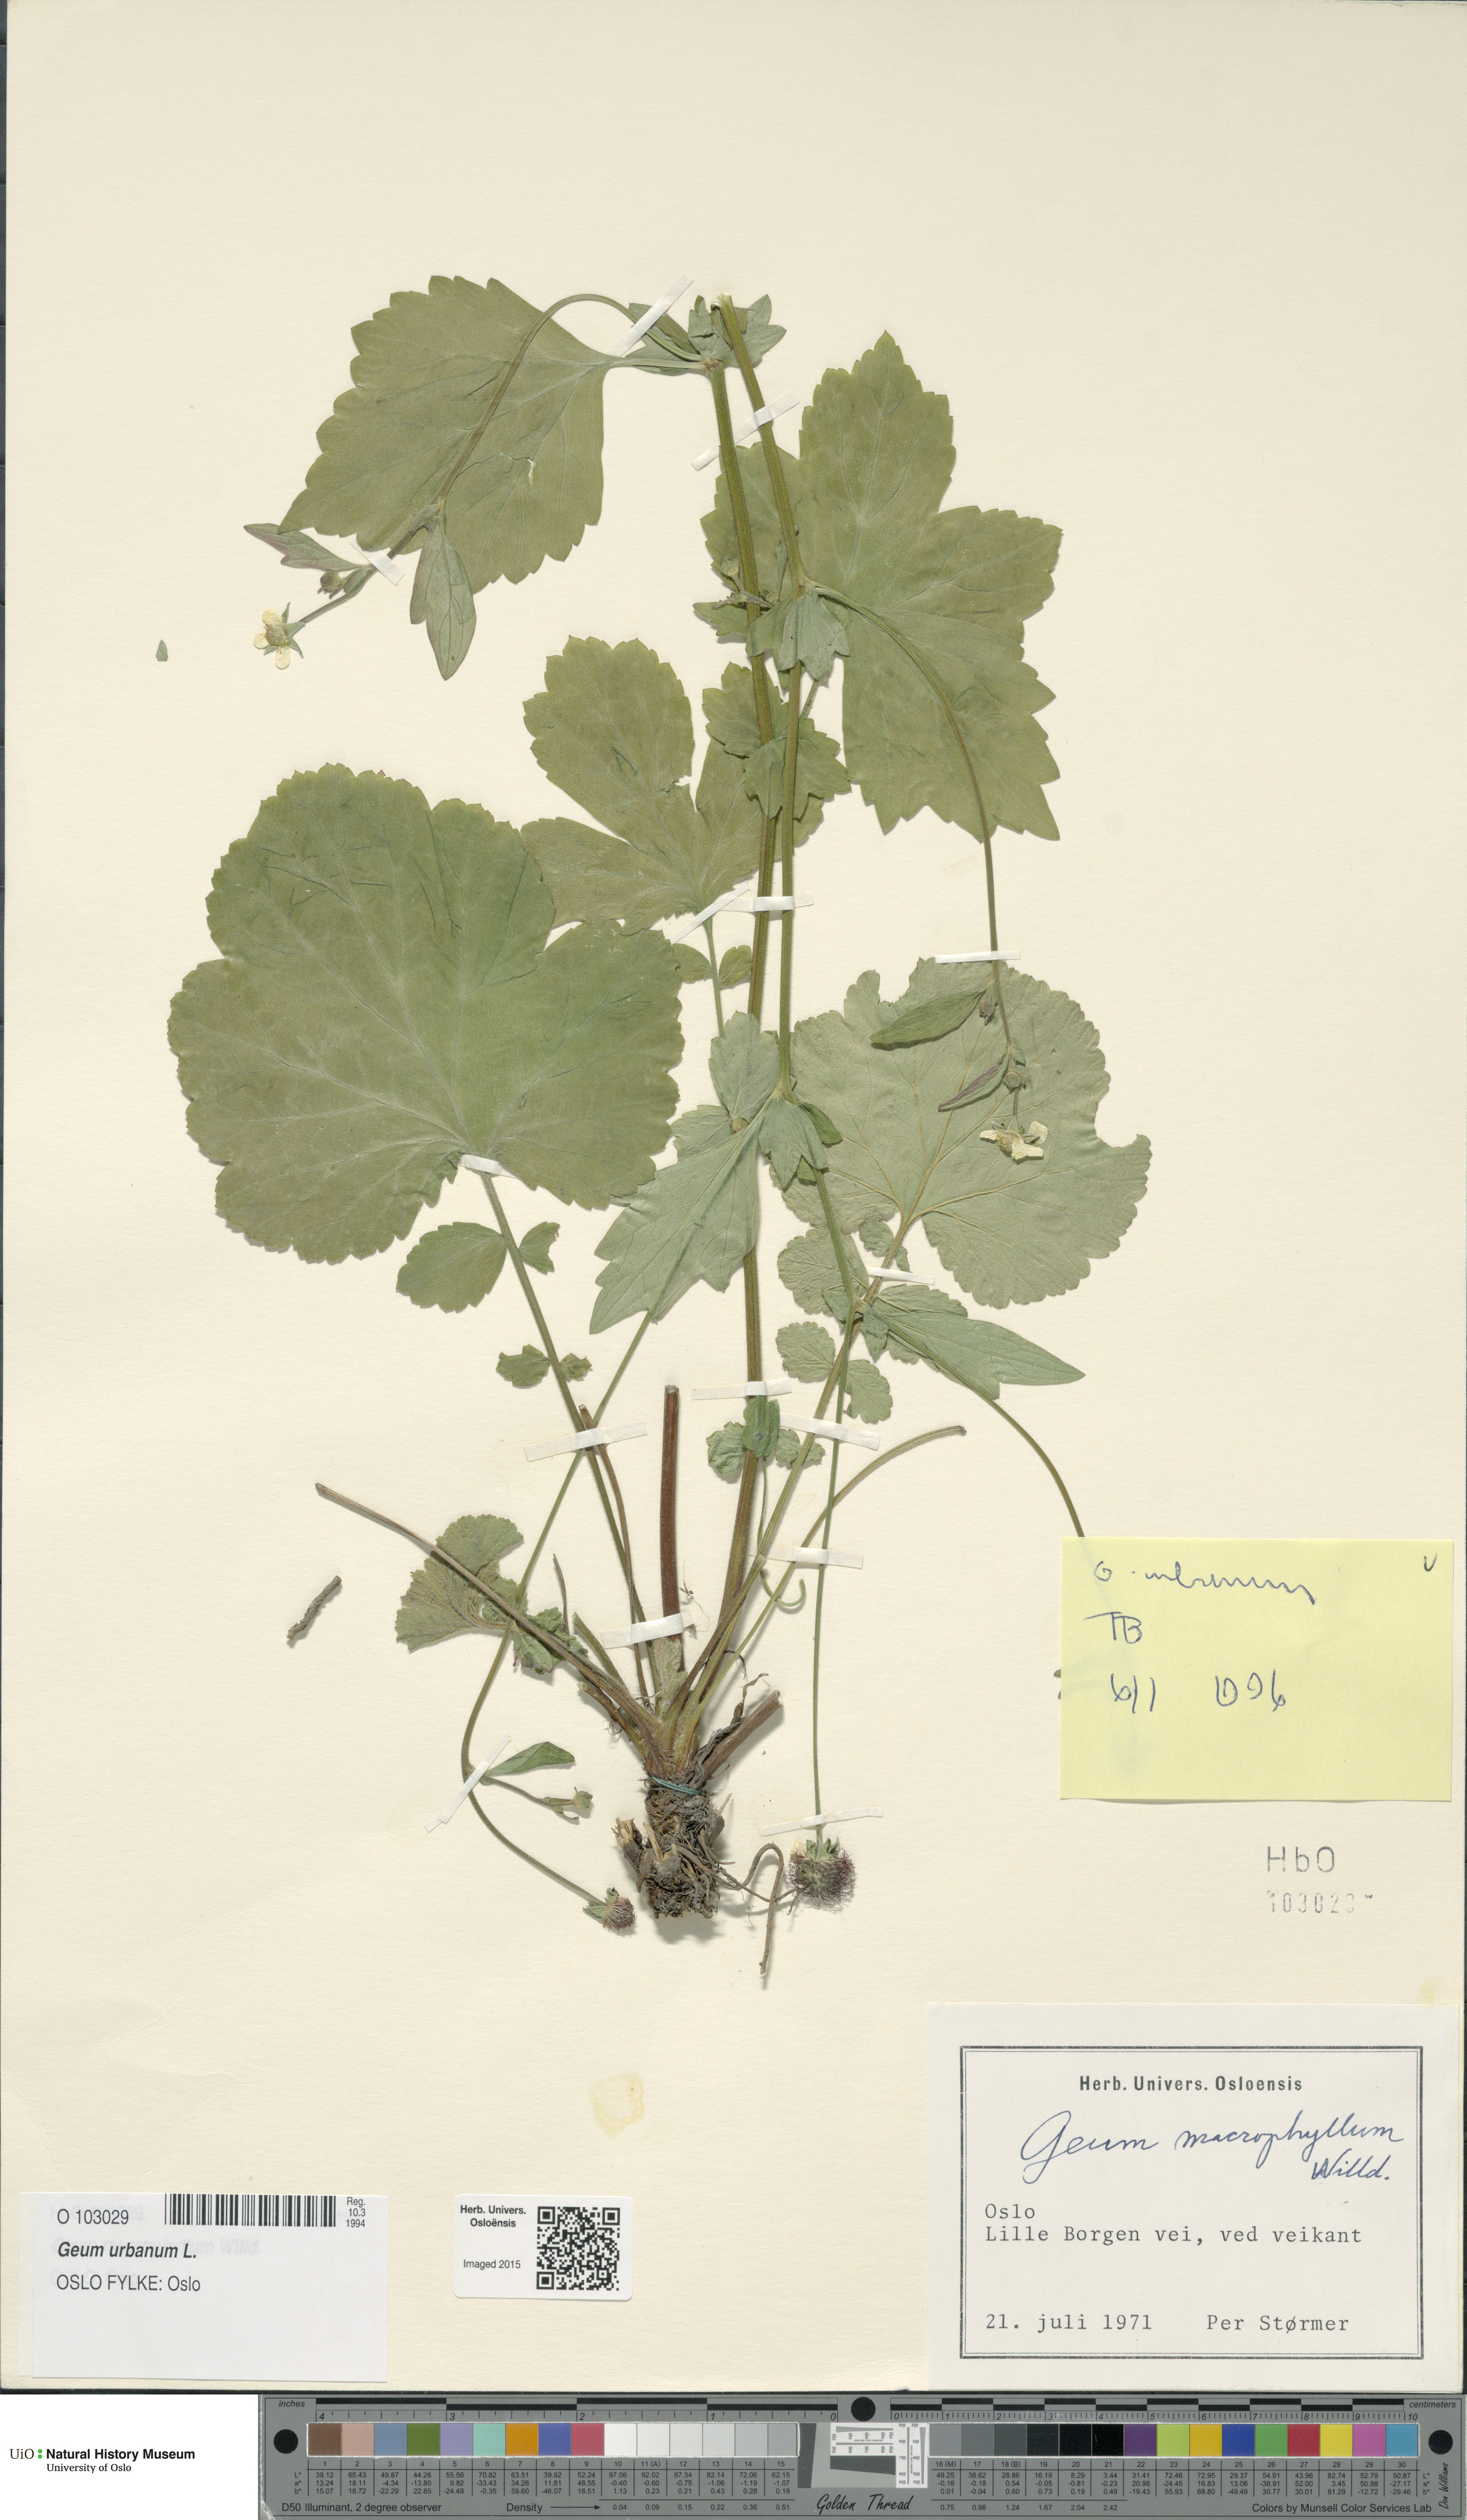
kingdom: Plantae
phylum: Tracheophyta
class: Magnoliopsida
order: Rosales
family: Rosaceae
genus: Geum
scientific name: Geum urbanum
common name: Wood avens
